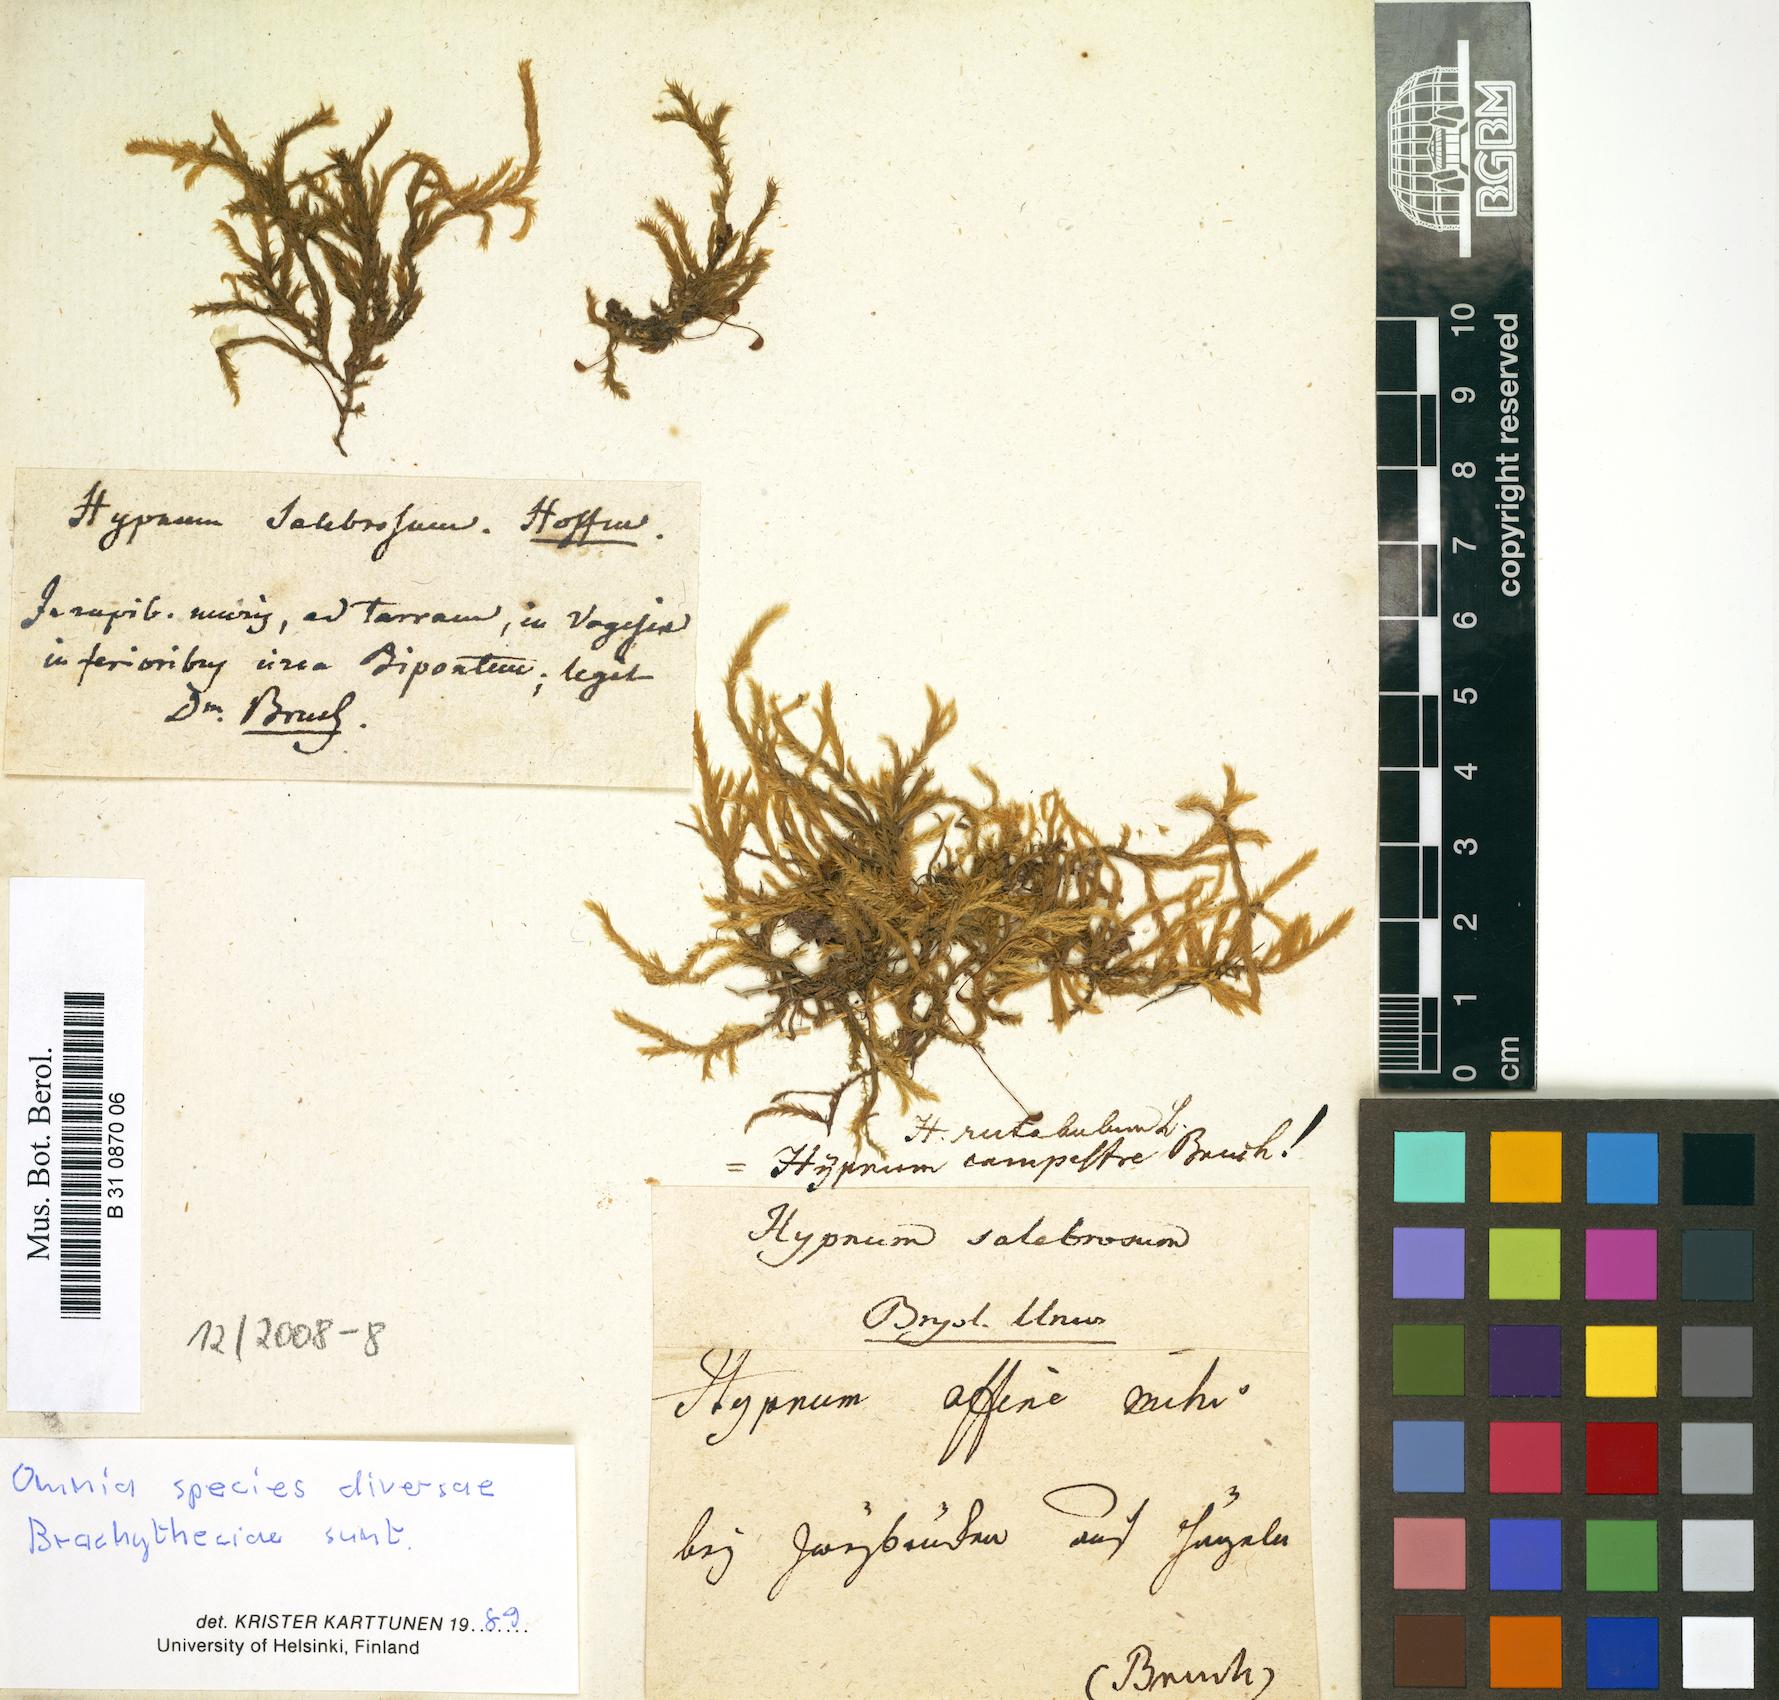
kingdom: Plantae
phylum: Bryophyta
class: Bryopsida
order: Hypnales
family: Brachytheciaceae
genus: Brachythecium
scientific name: Brachythecium salebrosum
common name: Smooth-stalk feather-moss
